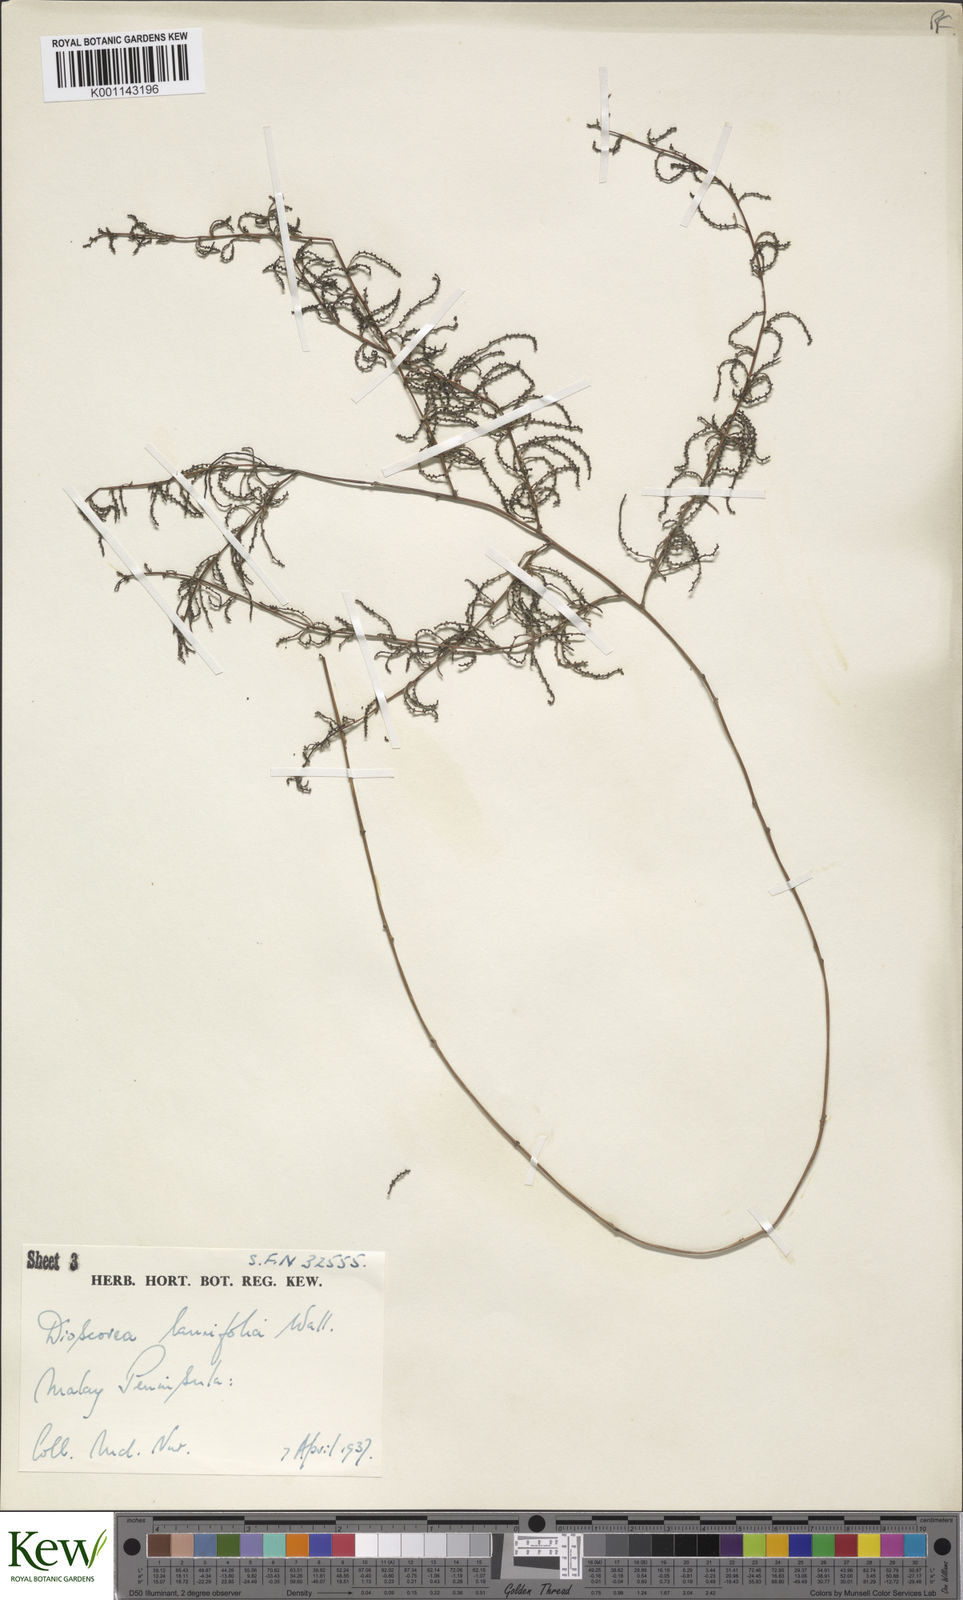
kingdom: Plantae
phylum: Tracheophyta
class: Liliopsida
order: Dioscoreales
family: Dioscoreaceae
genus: Dioscorea
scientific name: Dioscorea laurifolia
